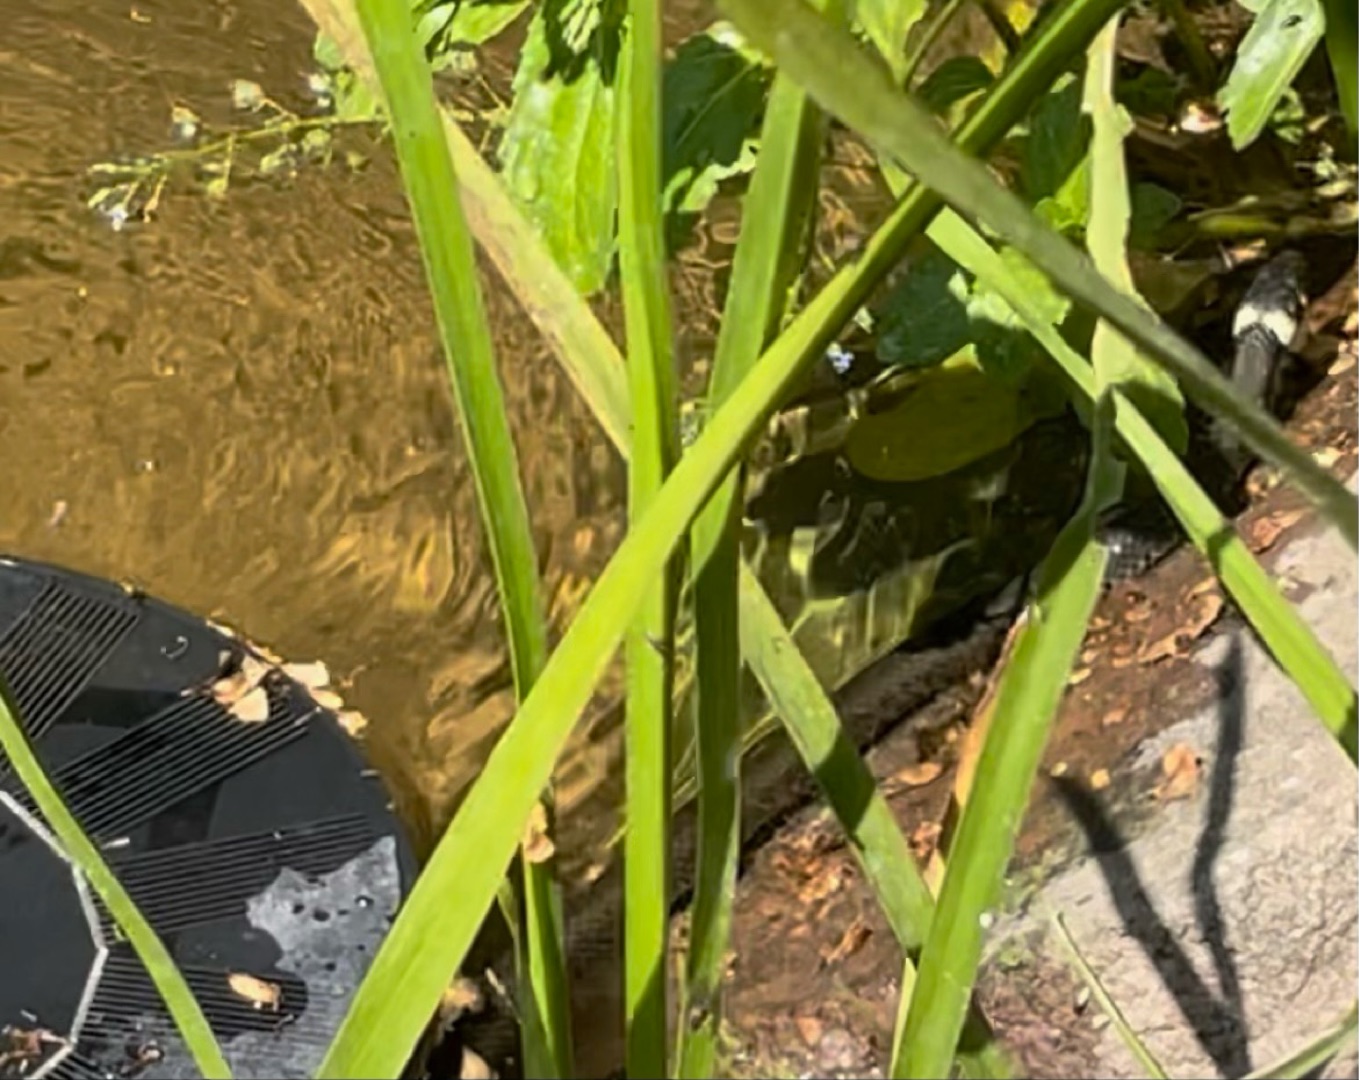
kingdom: Animalia
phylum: Chordata
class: Squamata
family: Colubridae
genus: Natrix
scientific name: Natrix natrix
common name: Snog
